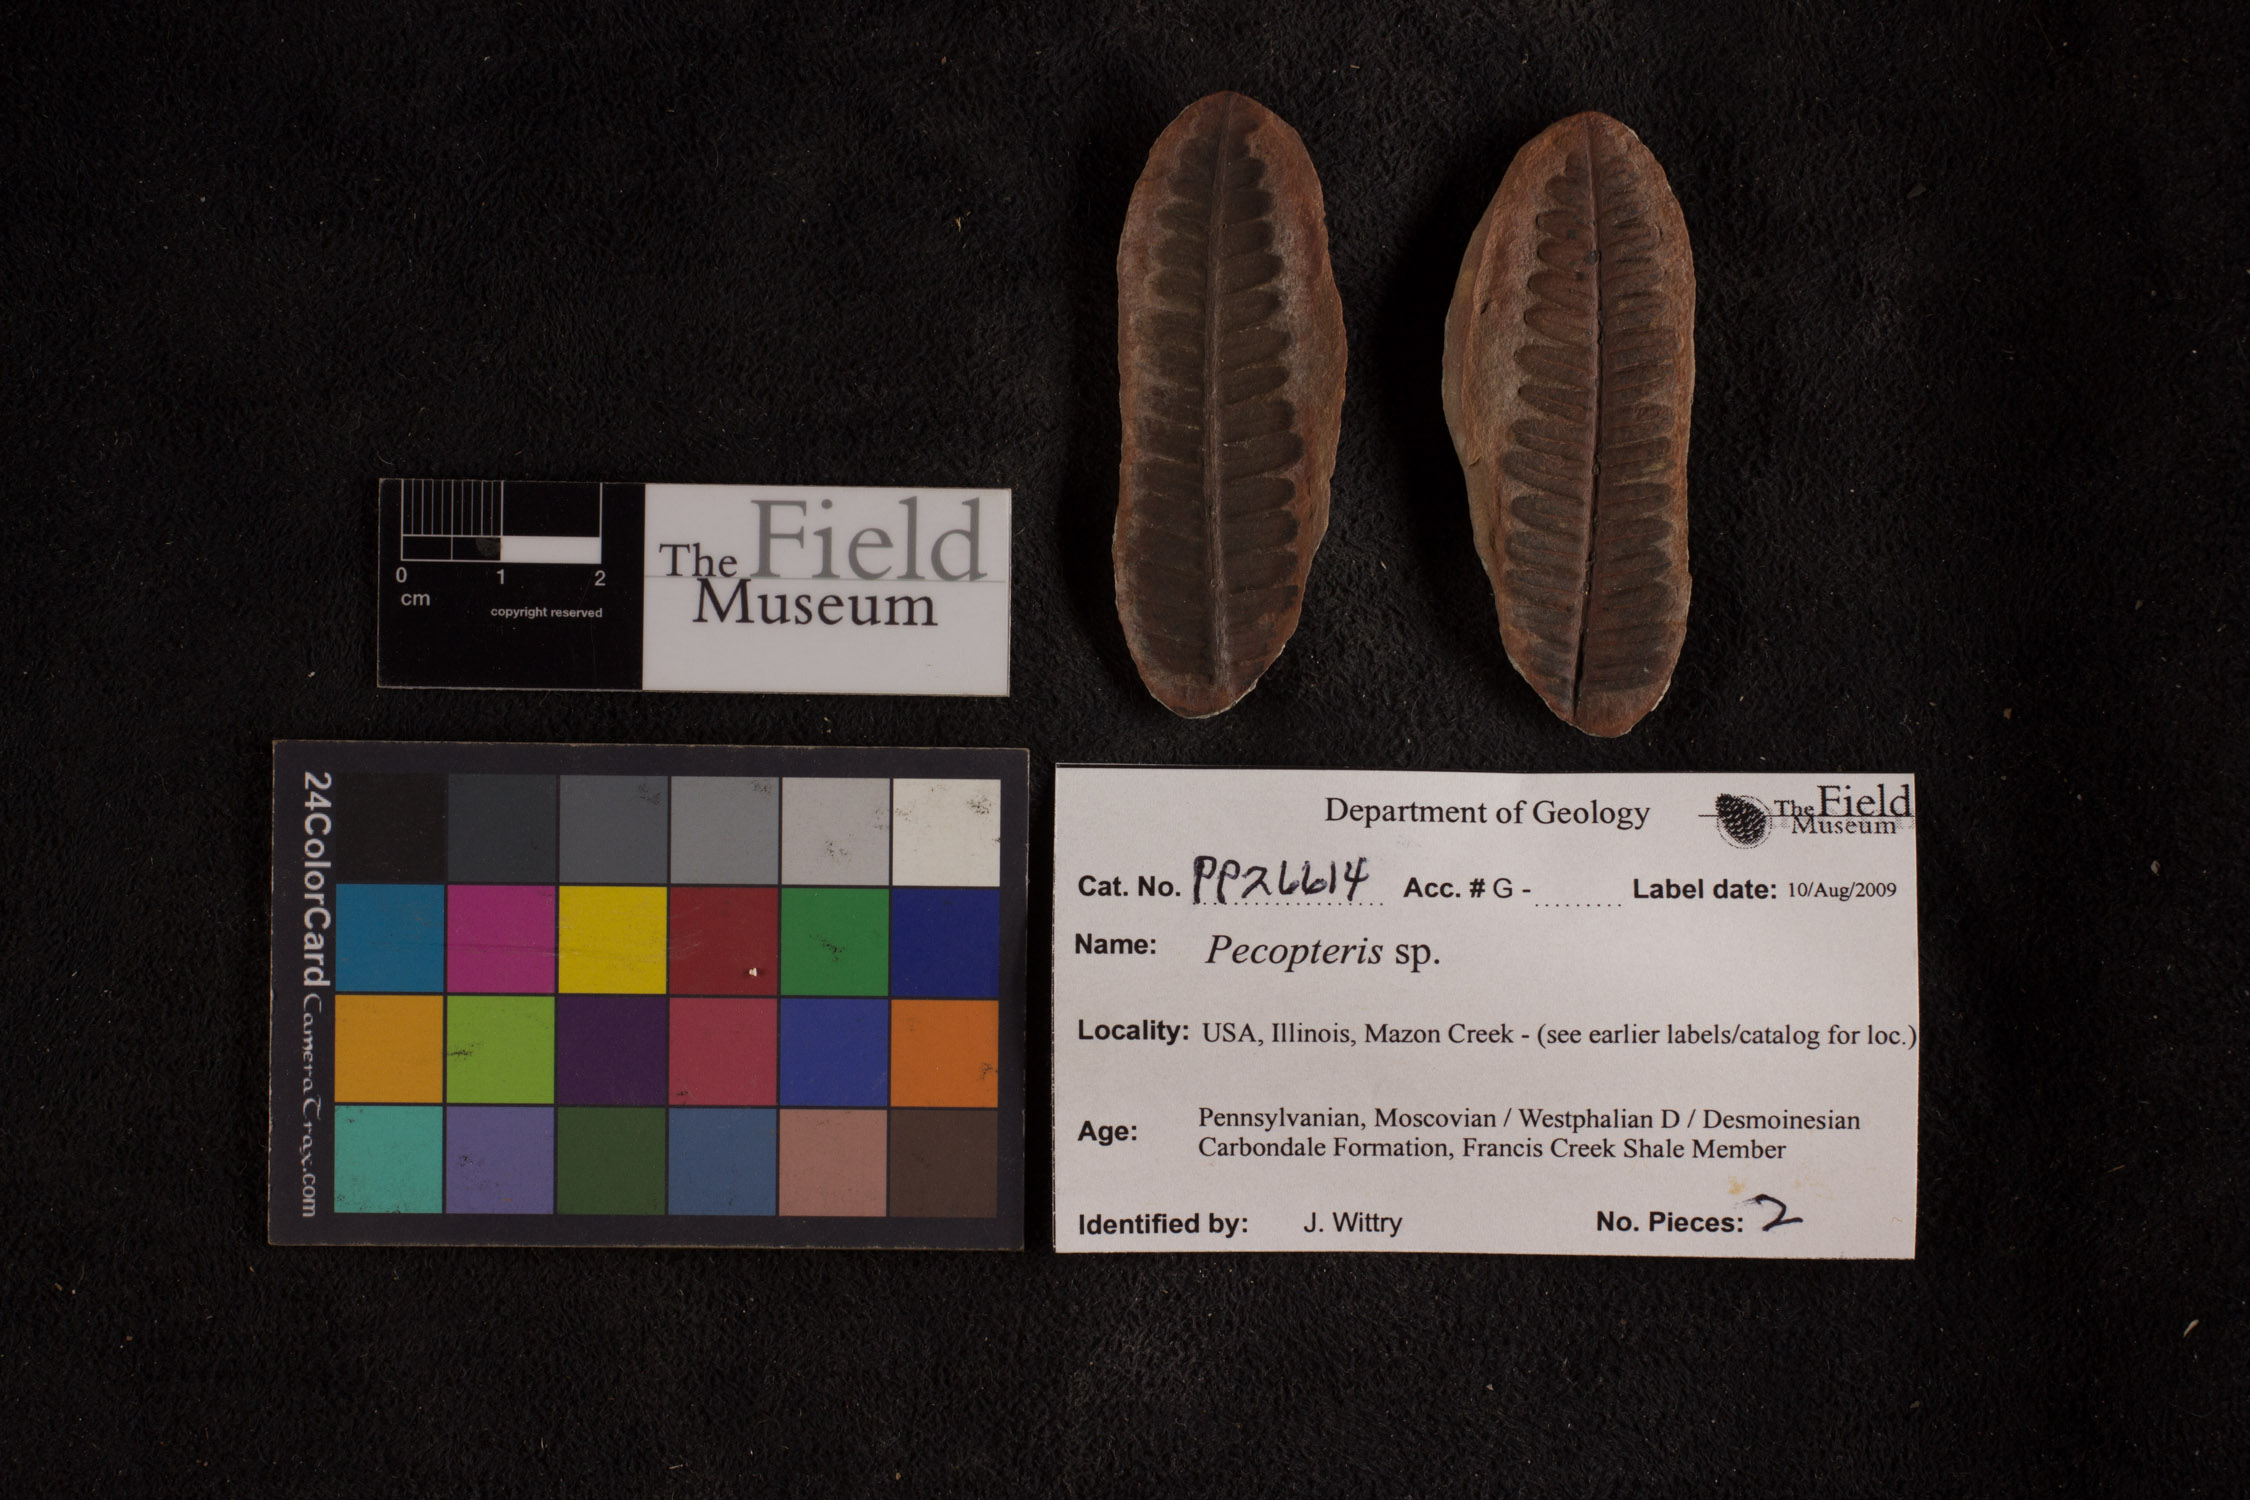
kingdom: Plantae
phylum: Tracheophyta
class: Polypodiopsida
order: Marattiales
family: Asterothecaceae
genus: Pecopteris
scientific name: Pecopteris
